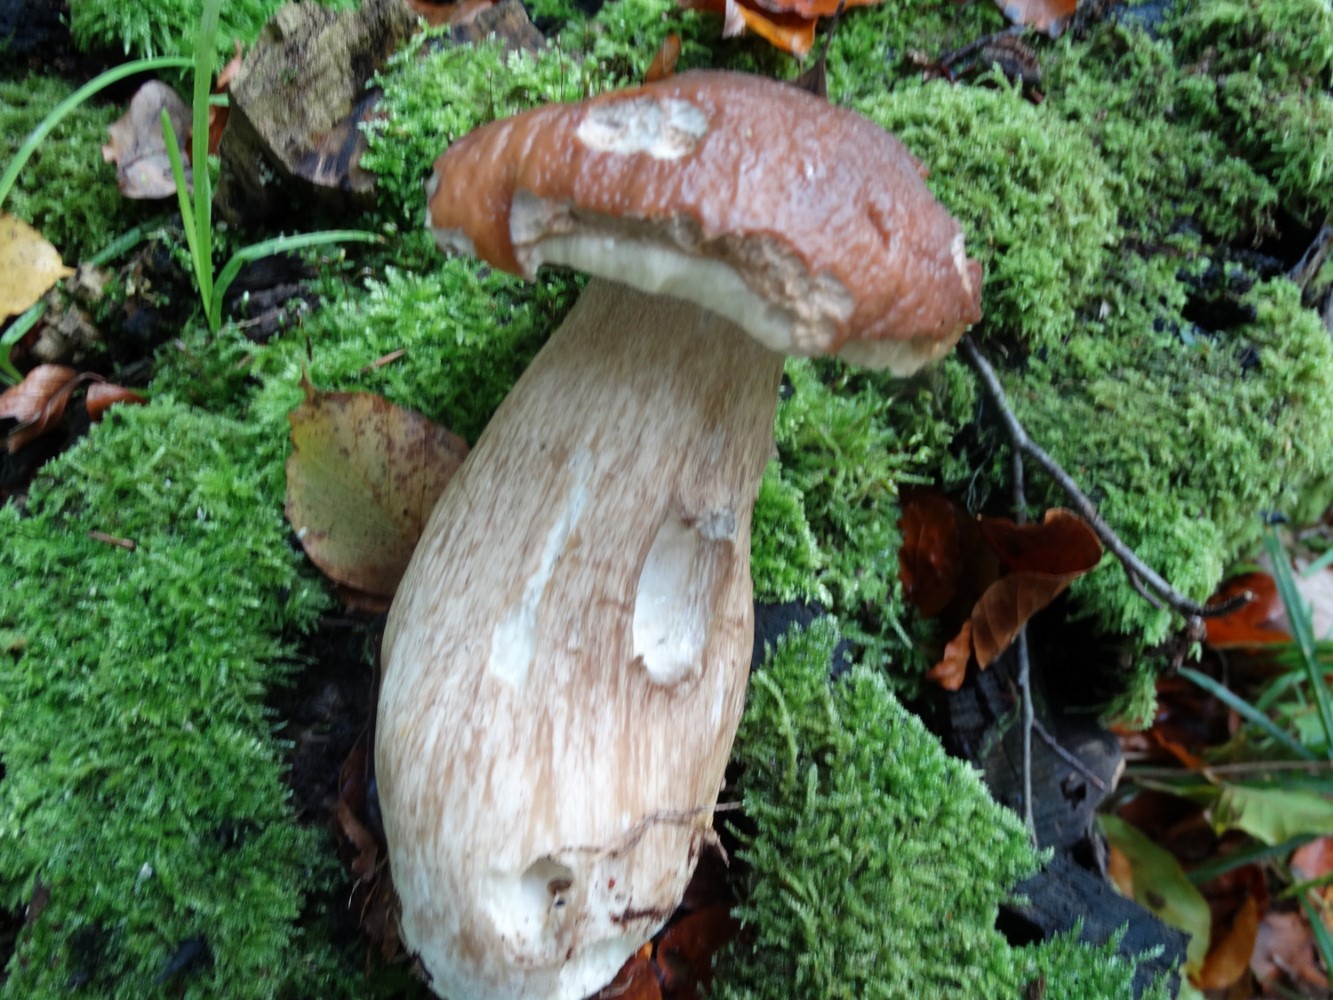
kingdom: Fungi
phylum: Basidiomycota
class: Agaricomycetes
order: Boletales
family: Boletaceae
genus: Boletus
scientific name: Boletus edulis
